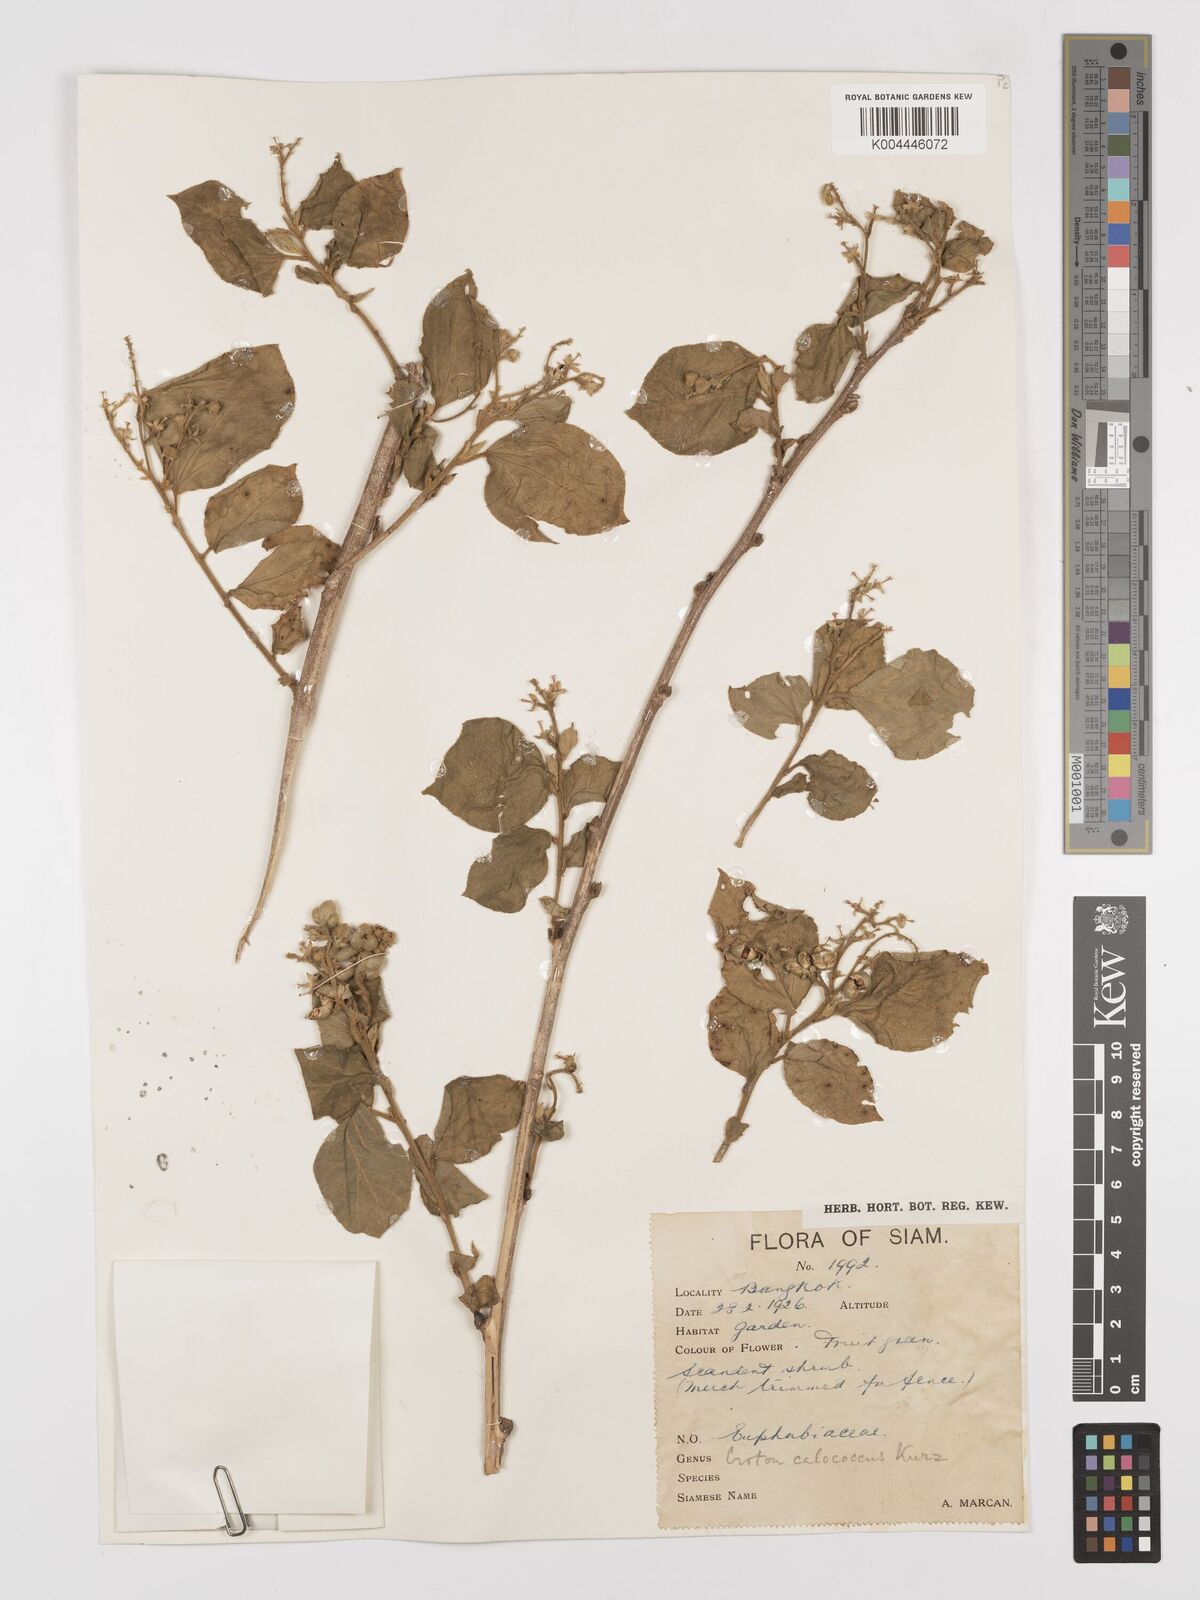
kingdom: Plantae
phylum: Tracheophyta
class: Magnoliopsida
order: Malpighiales
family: Euphorbiaceae
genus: Croton
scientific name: Croton lachnocarpus
